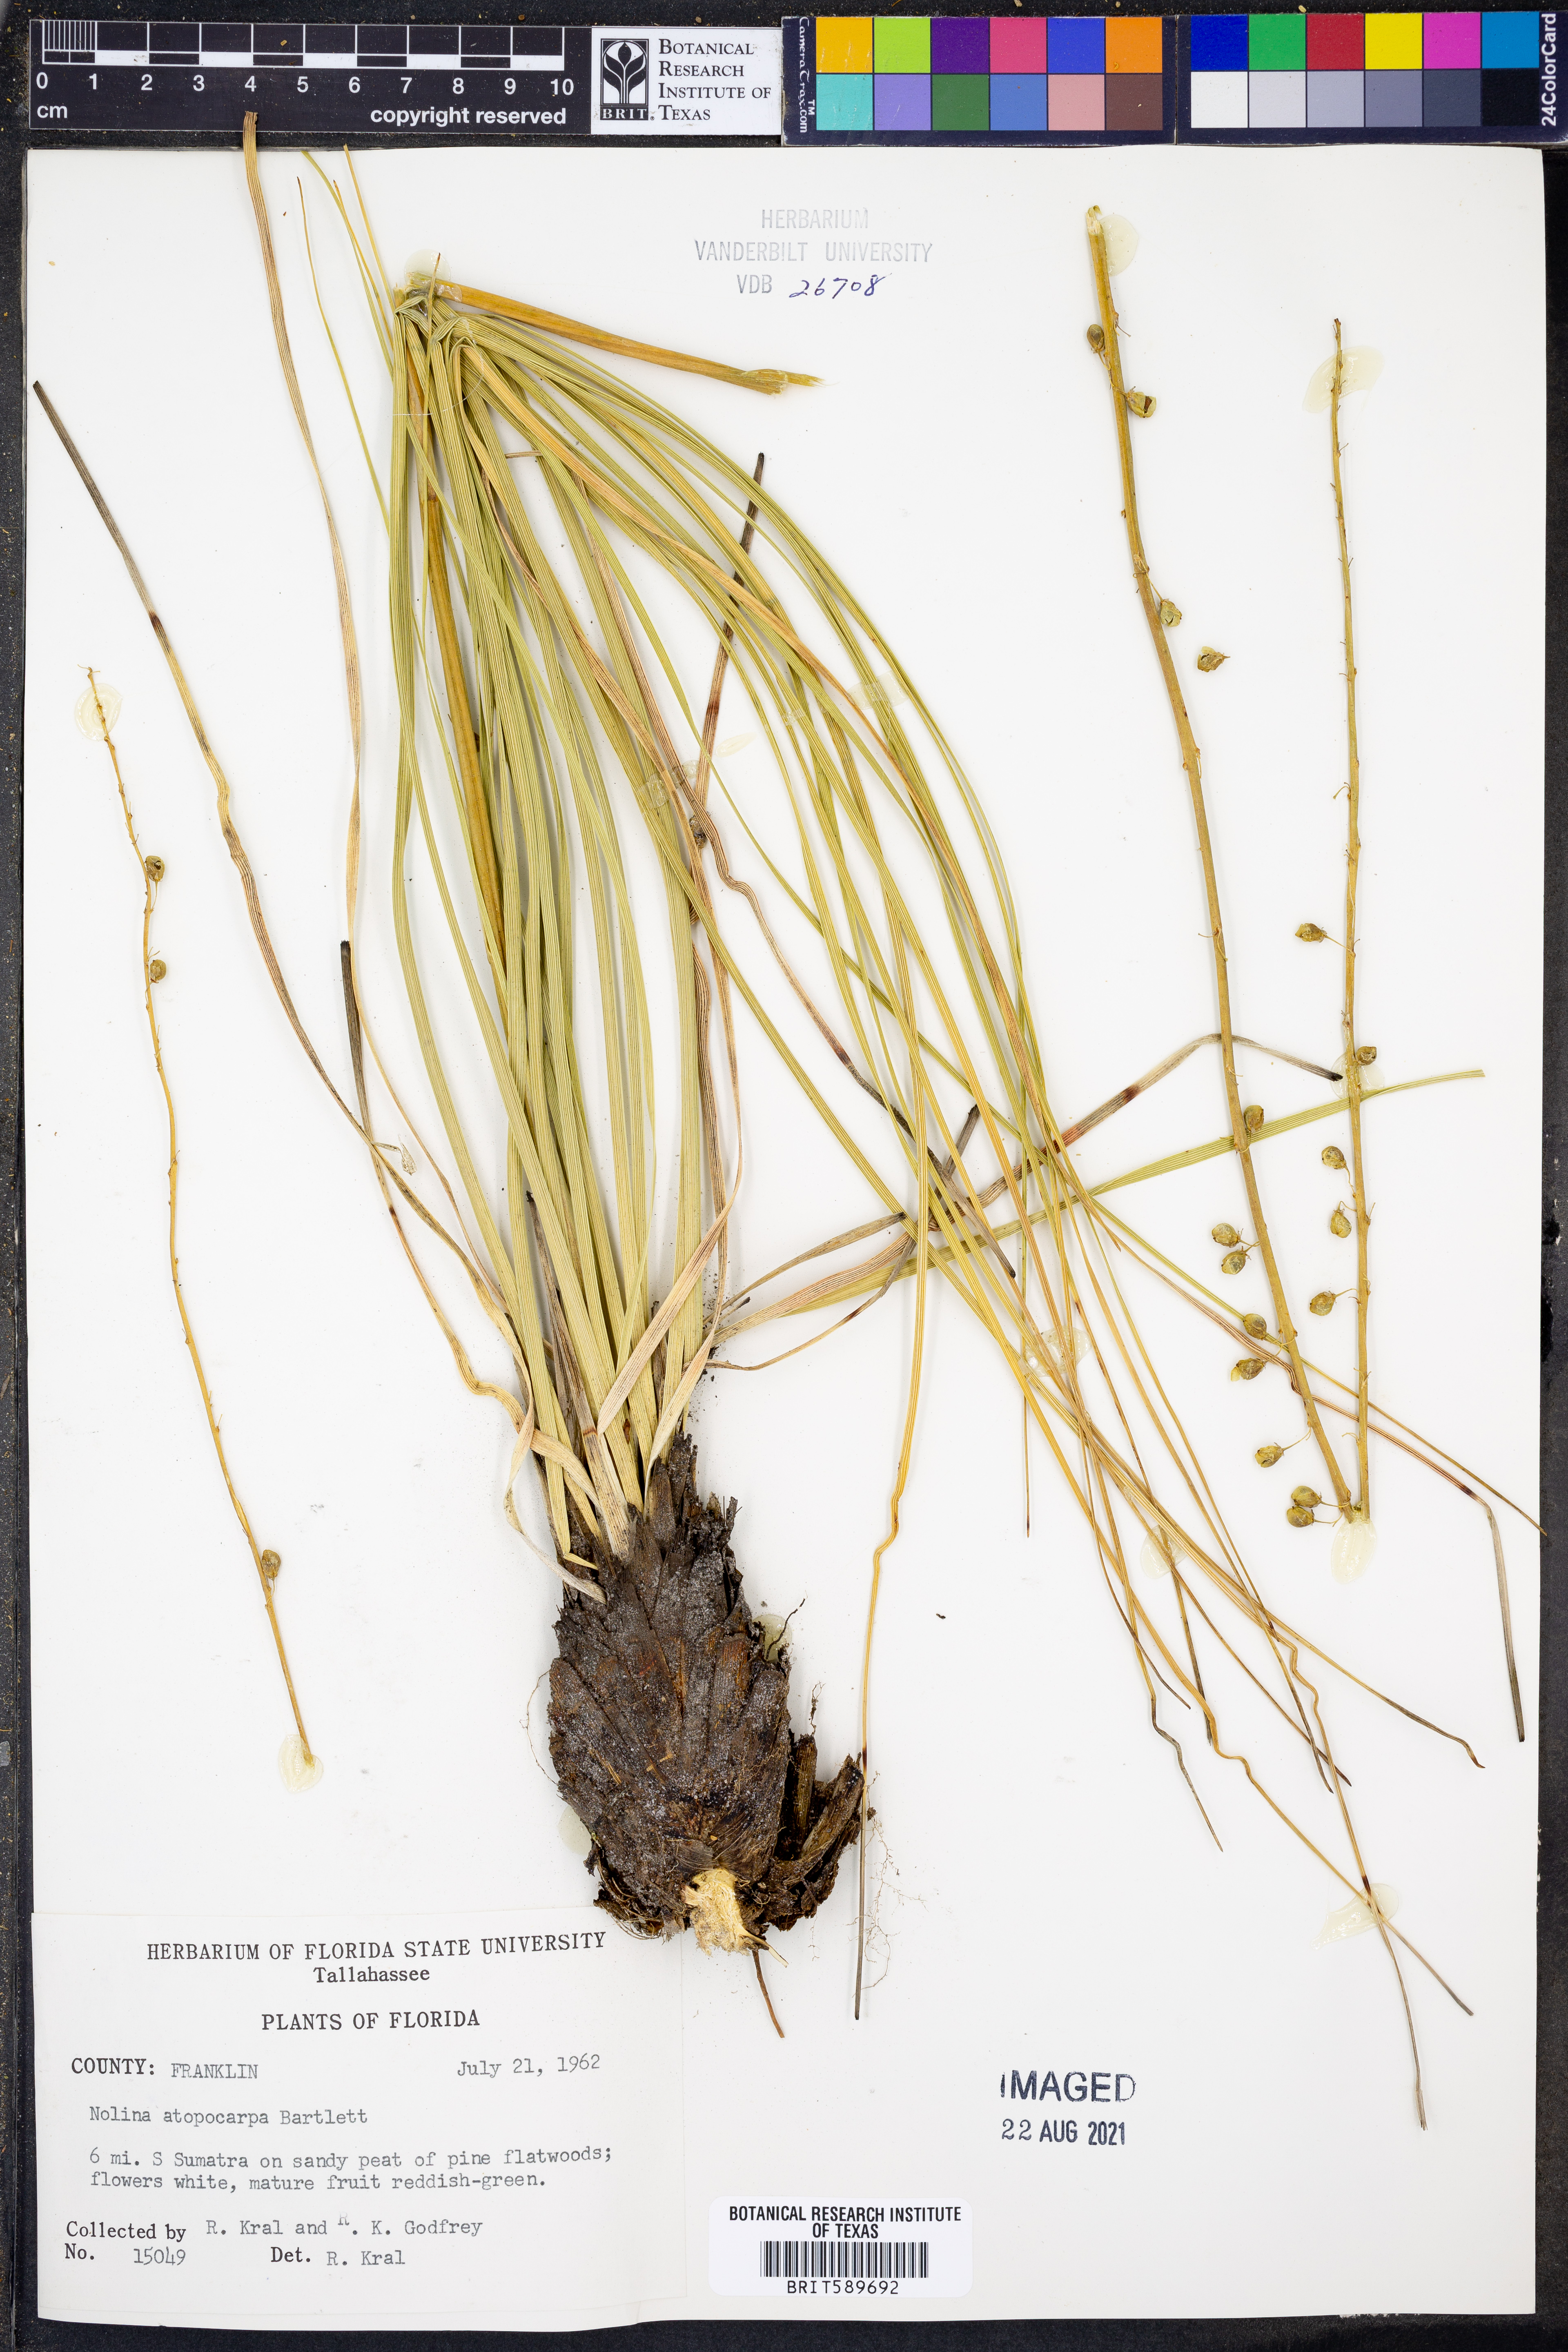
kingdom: Plantae
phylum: Tracheophyta
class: Liliopsida
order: Asparagales
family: Asparagaceae
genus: Nolina
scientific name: Nolina atopocarpa
